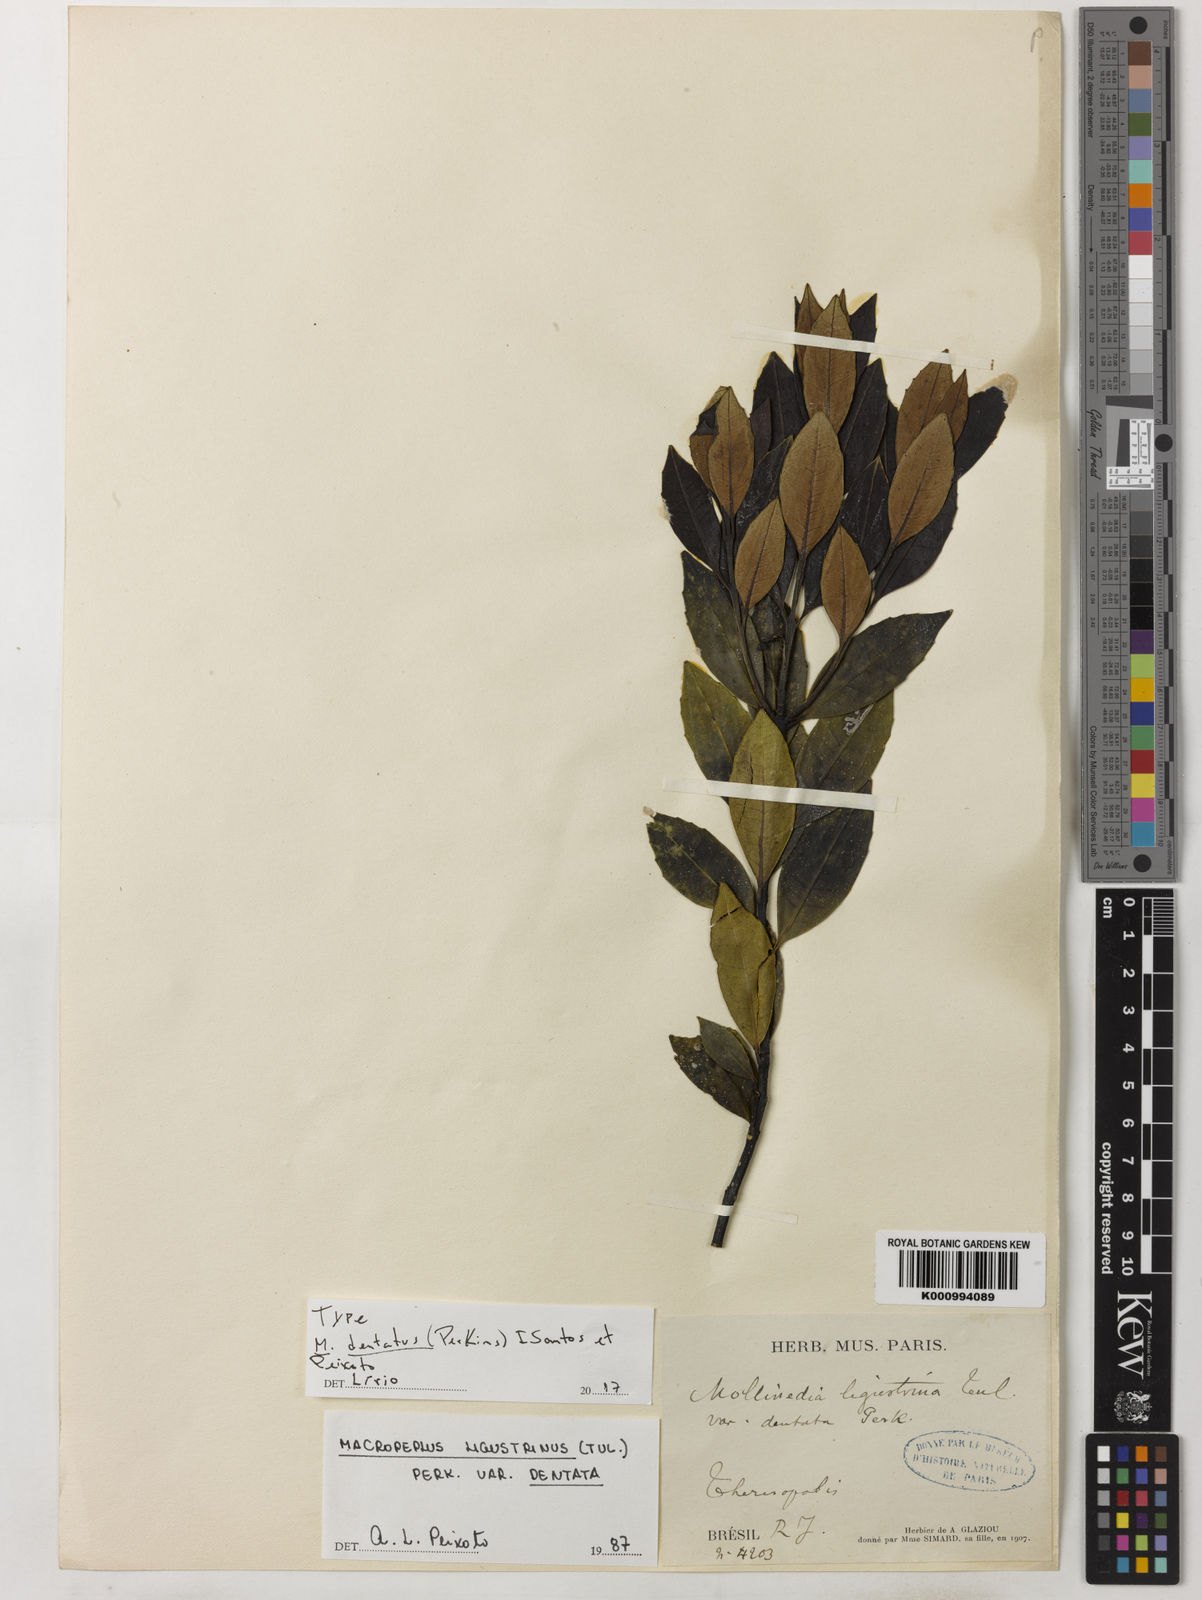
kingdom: Plantae
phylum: Tracheophyta
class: Magnoliopsida
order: Laurales
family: Monimiaceae
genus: Macropeplus
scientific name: Macropeplus dentatus
